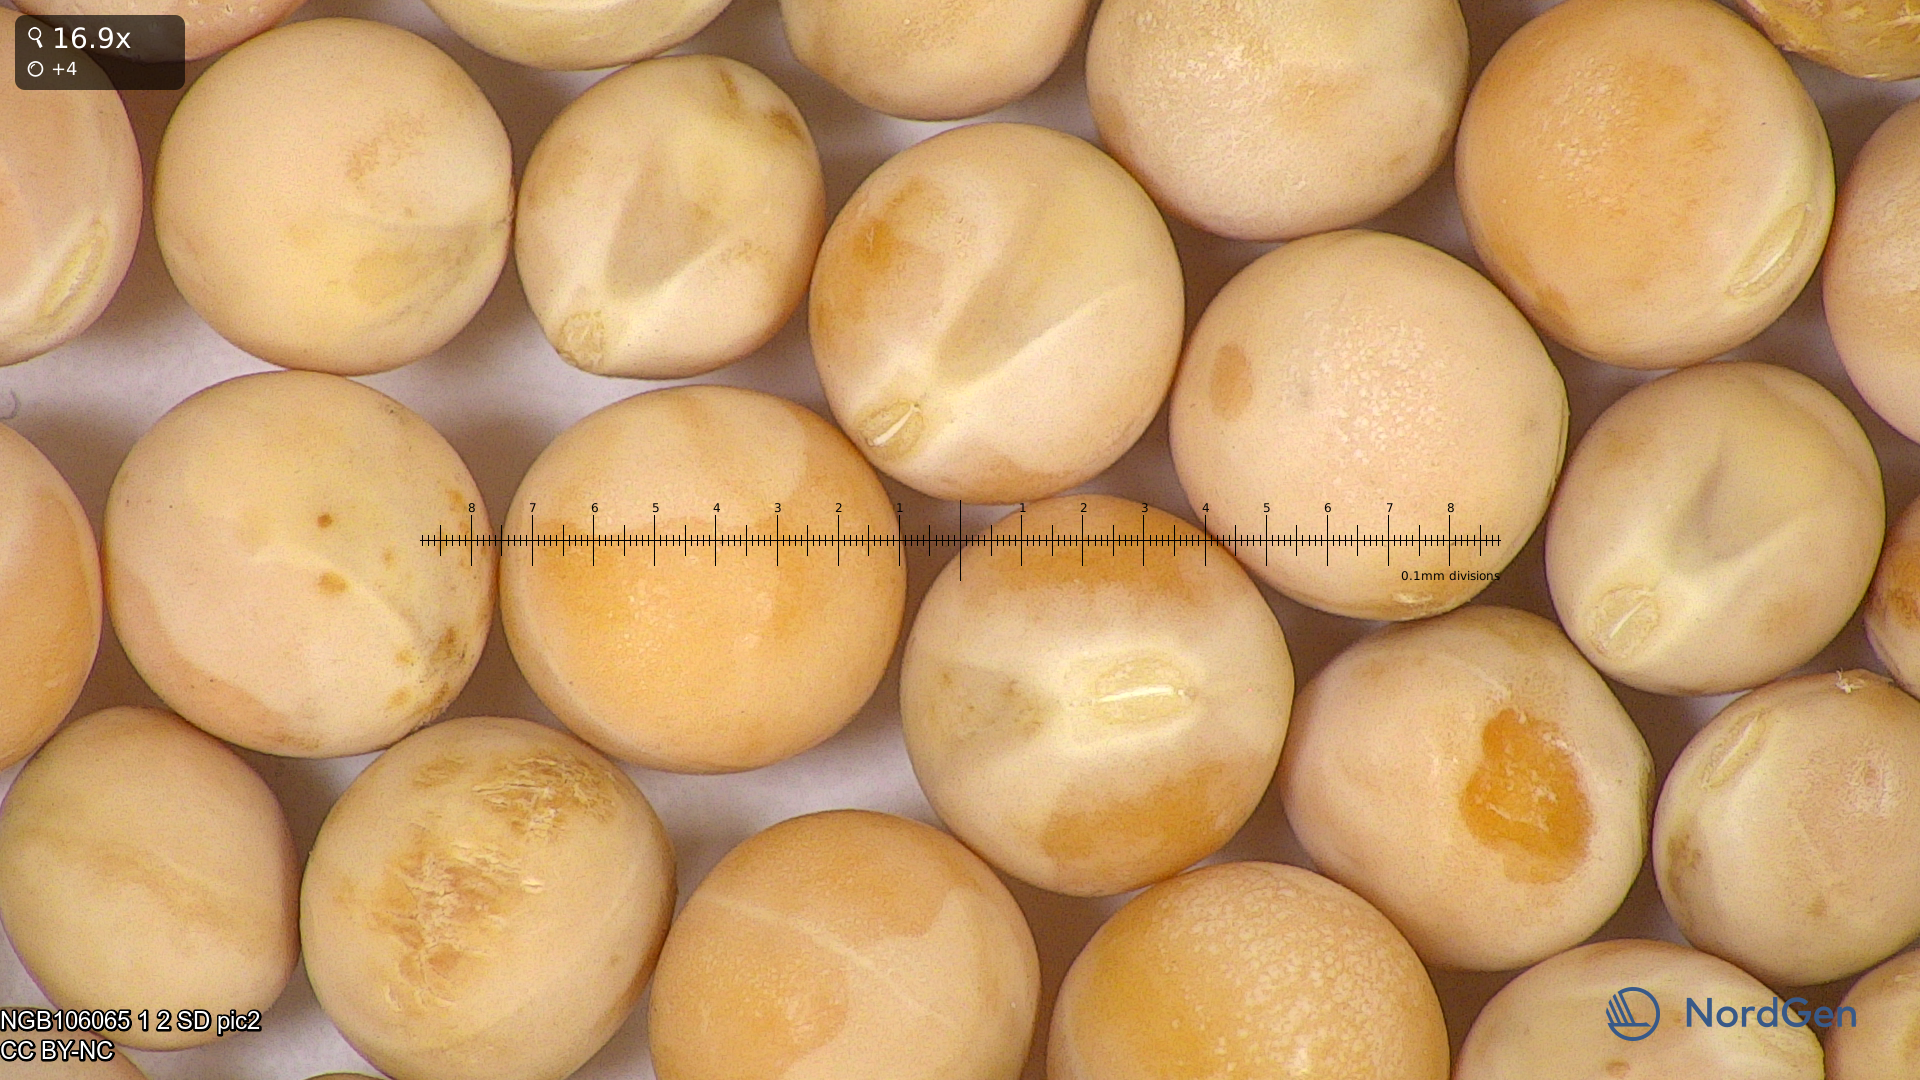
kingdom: Plantae
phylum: Tracheophyta
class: Magnoliopsida
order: Fabales
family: Fabaceae
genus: Lathyrus
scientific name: Lathyrus oleraceus
